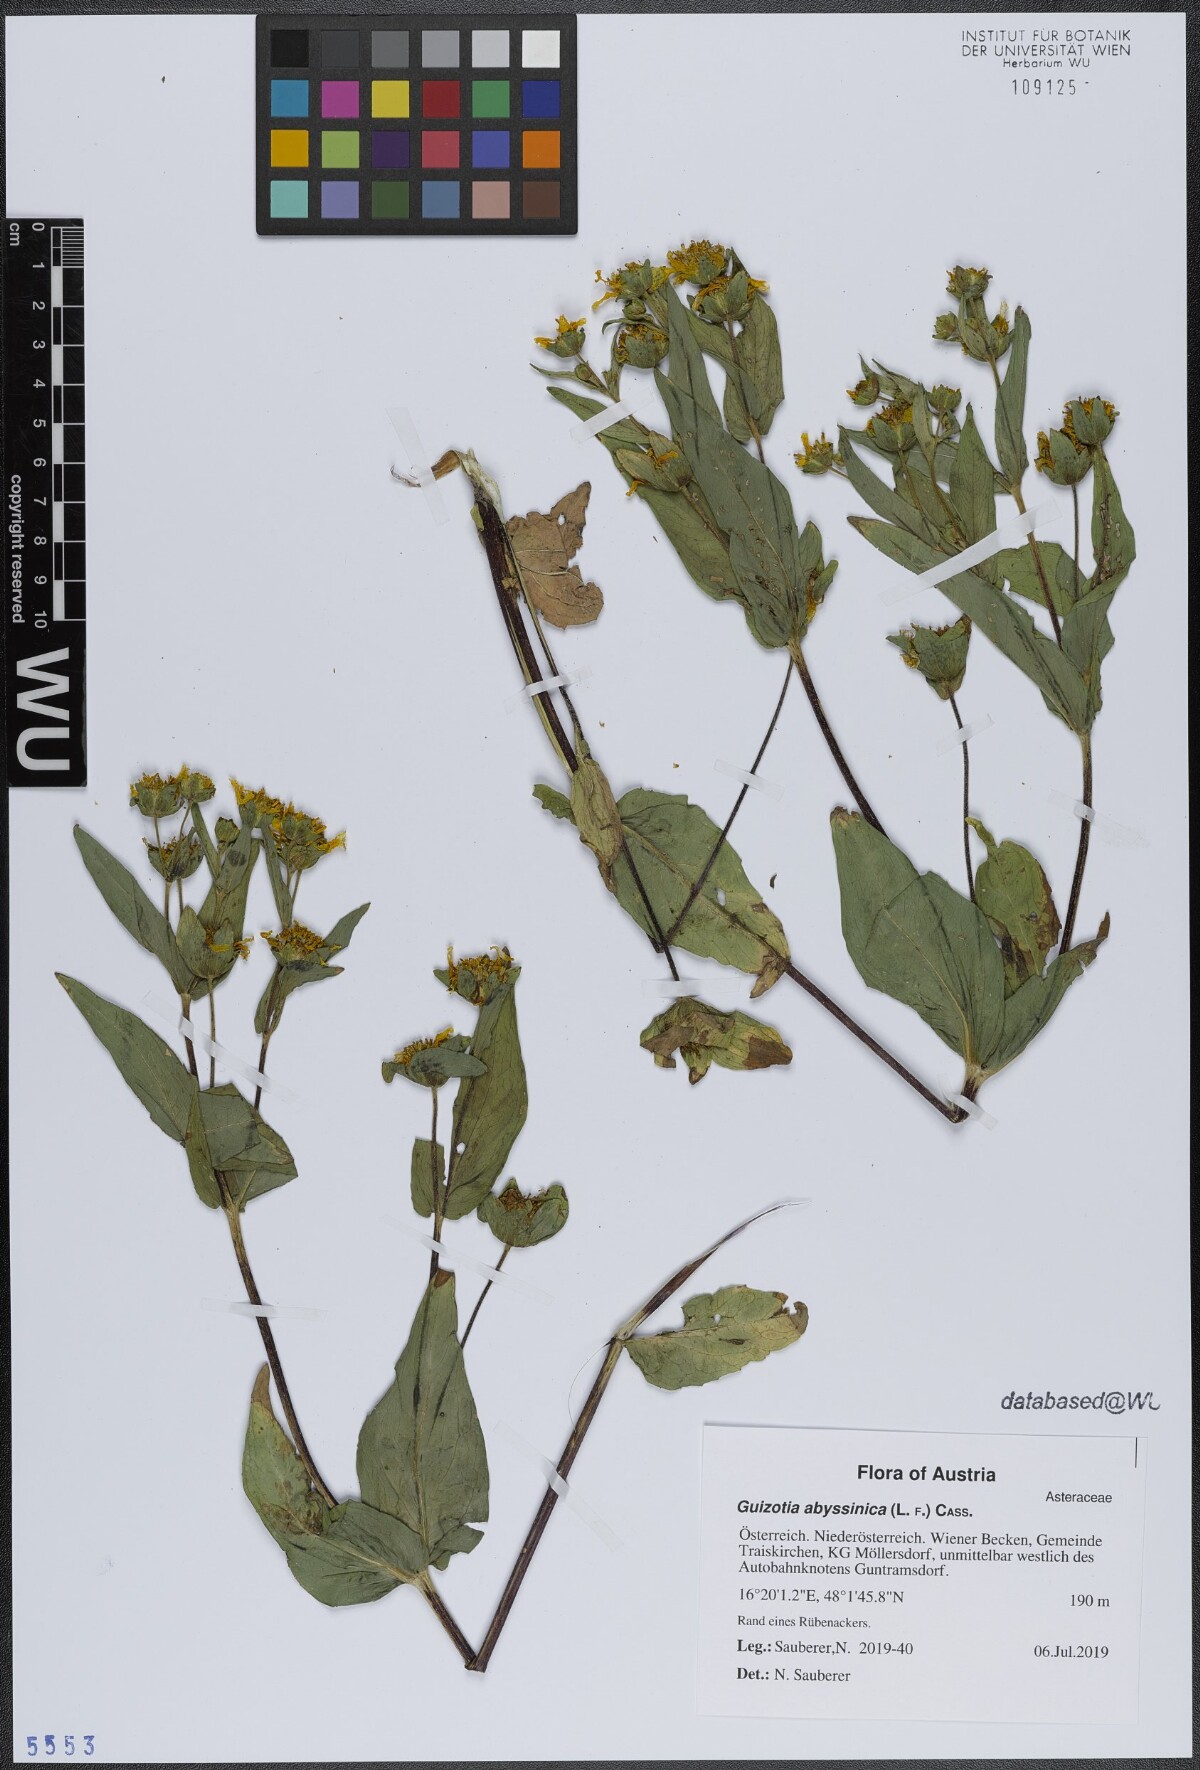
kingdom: Plantae
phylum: Tracheophyta
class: Magnoliopsida
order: Asterales
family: Asteraceae
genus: Guizotia
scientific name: Guizotia abyssinica
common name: Niger
